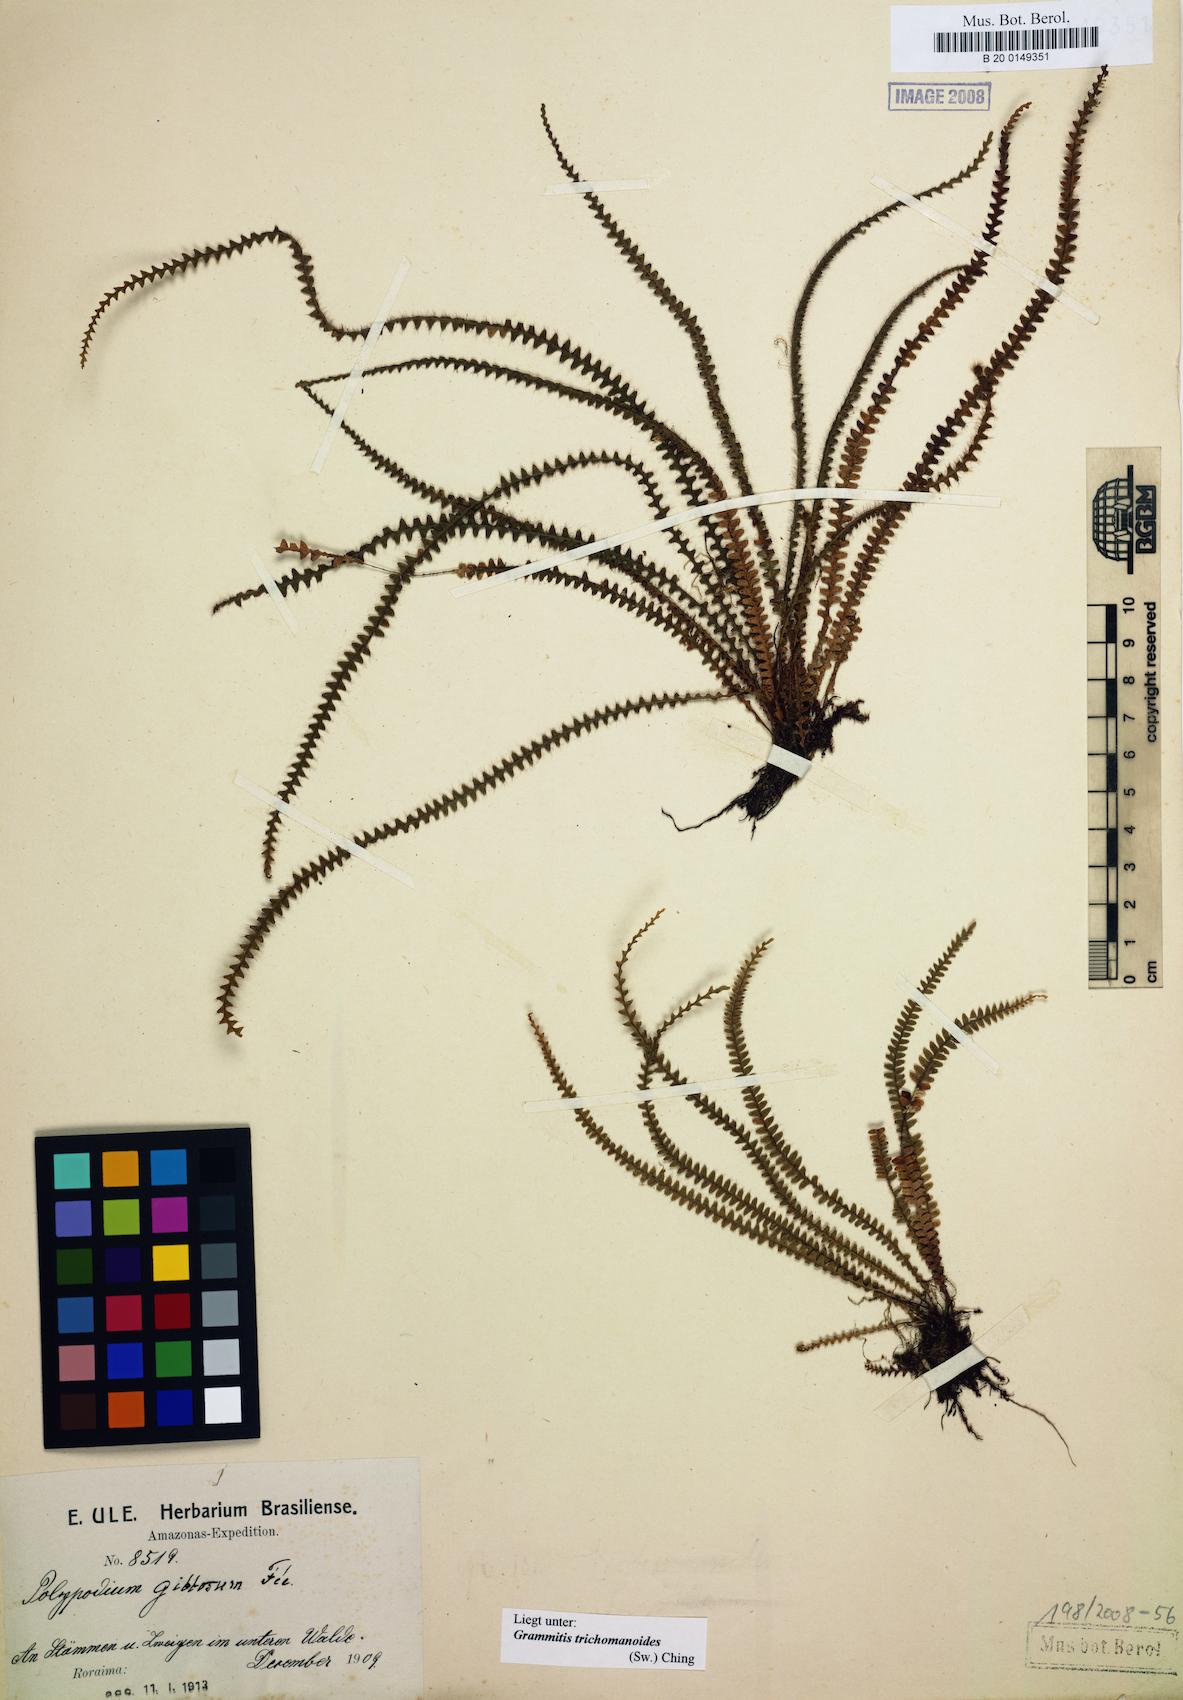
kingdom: Plantae
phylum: Tracheophyta
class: Polypodiopsida
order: Polypodiales
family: Polypodiaceae
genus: Moranopteris
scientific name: Moranopteris caucana
